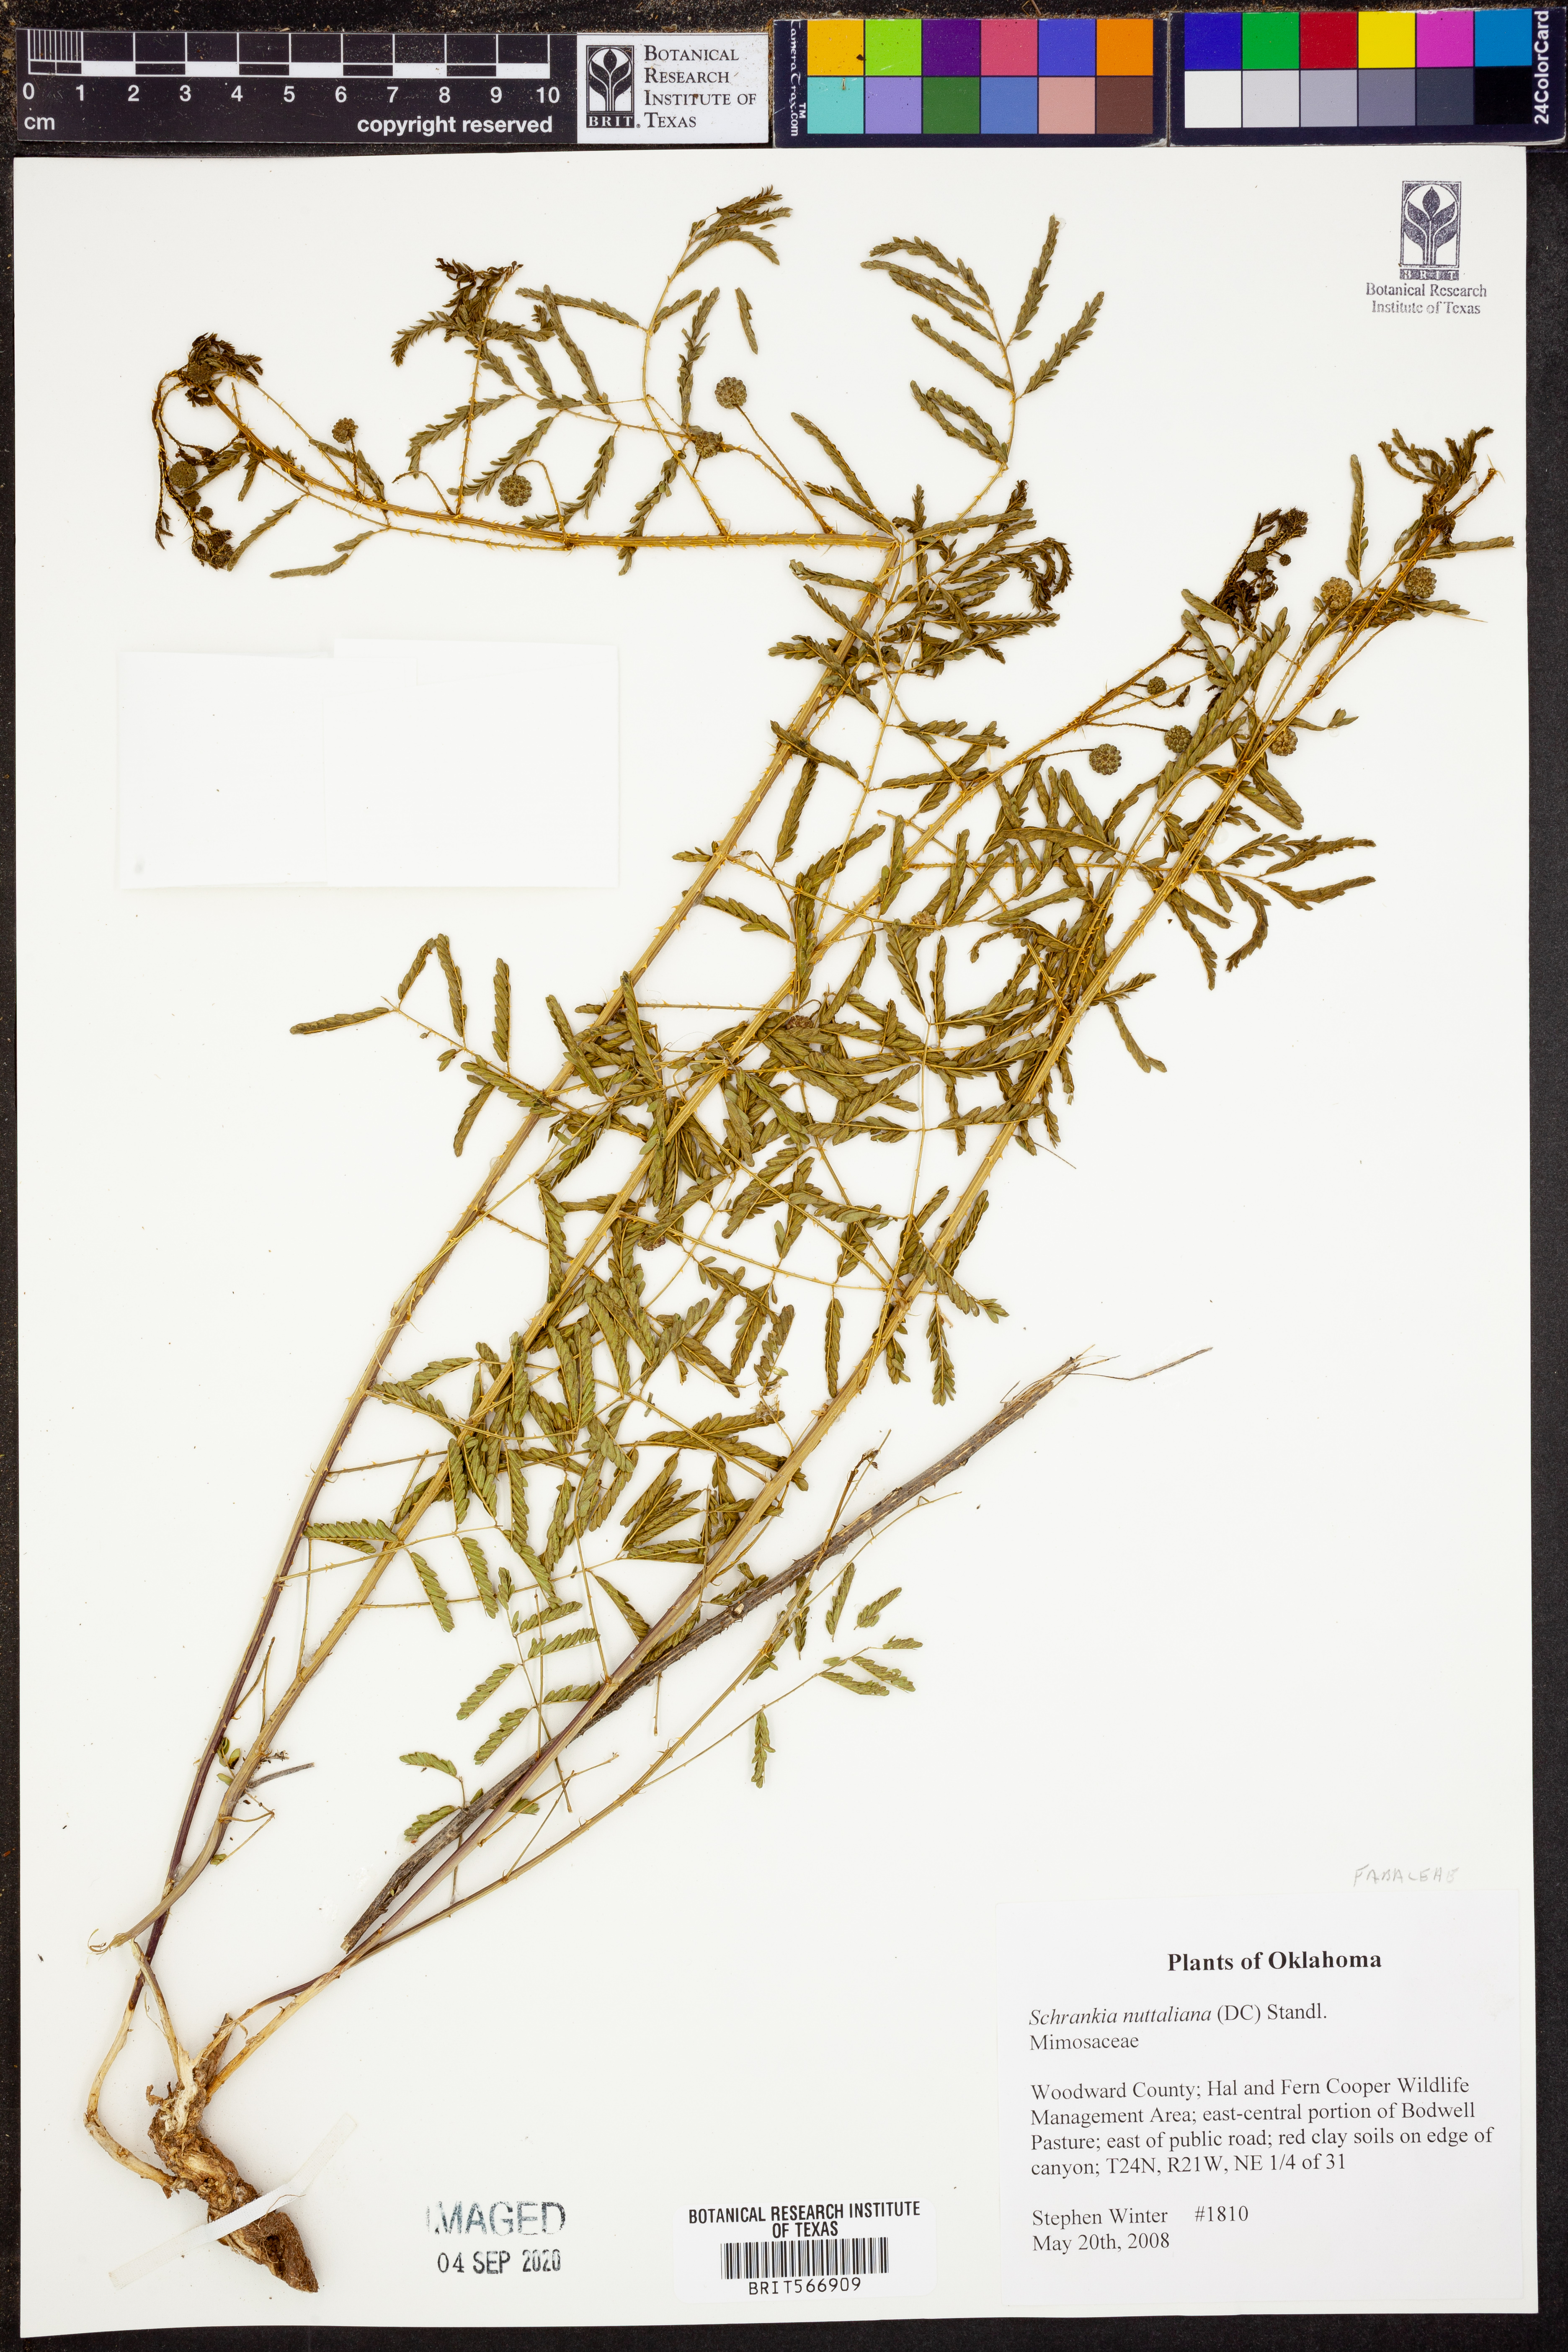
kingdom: Plantae
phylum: Tracheophyta
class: Magnoliopsida
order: Fabales
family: Fabaceae
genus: Mimosa
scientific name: Mimosa quadrivalvis
